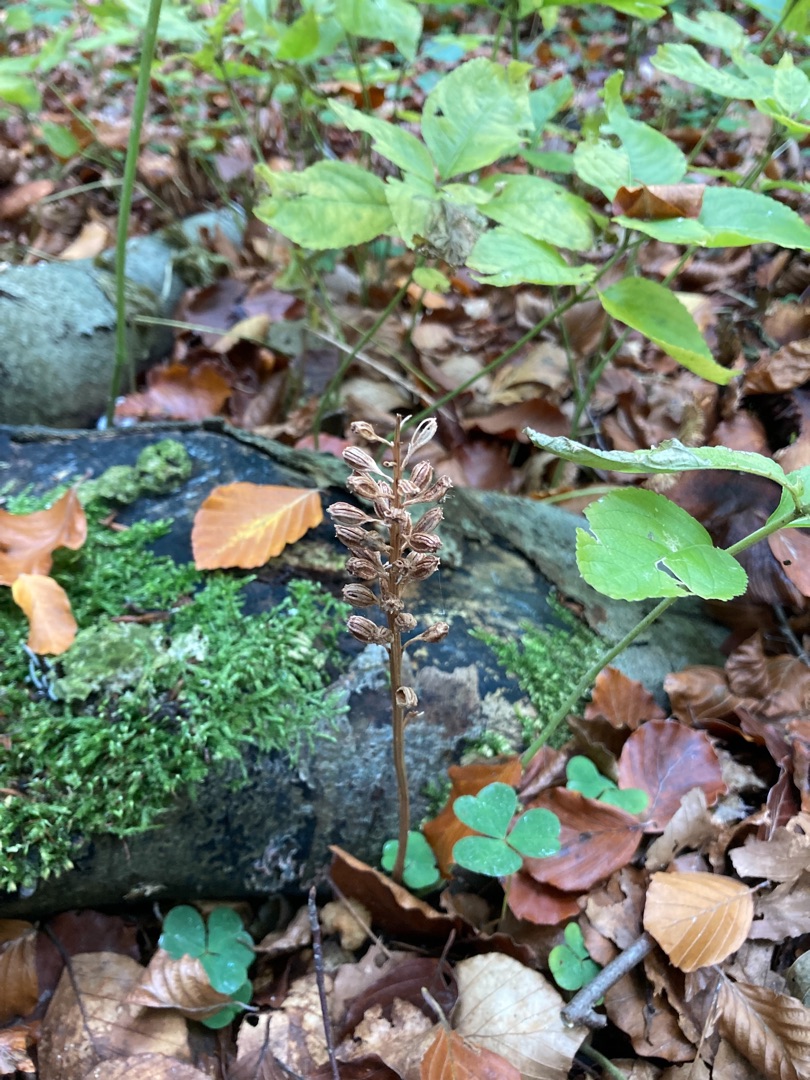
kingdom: Plantae
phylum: Tracheophyta
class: Liliopsida
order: Asparagales
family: Orchidaceae
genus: Neottia
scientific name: Neottia nidus-avis
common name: Rederod
